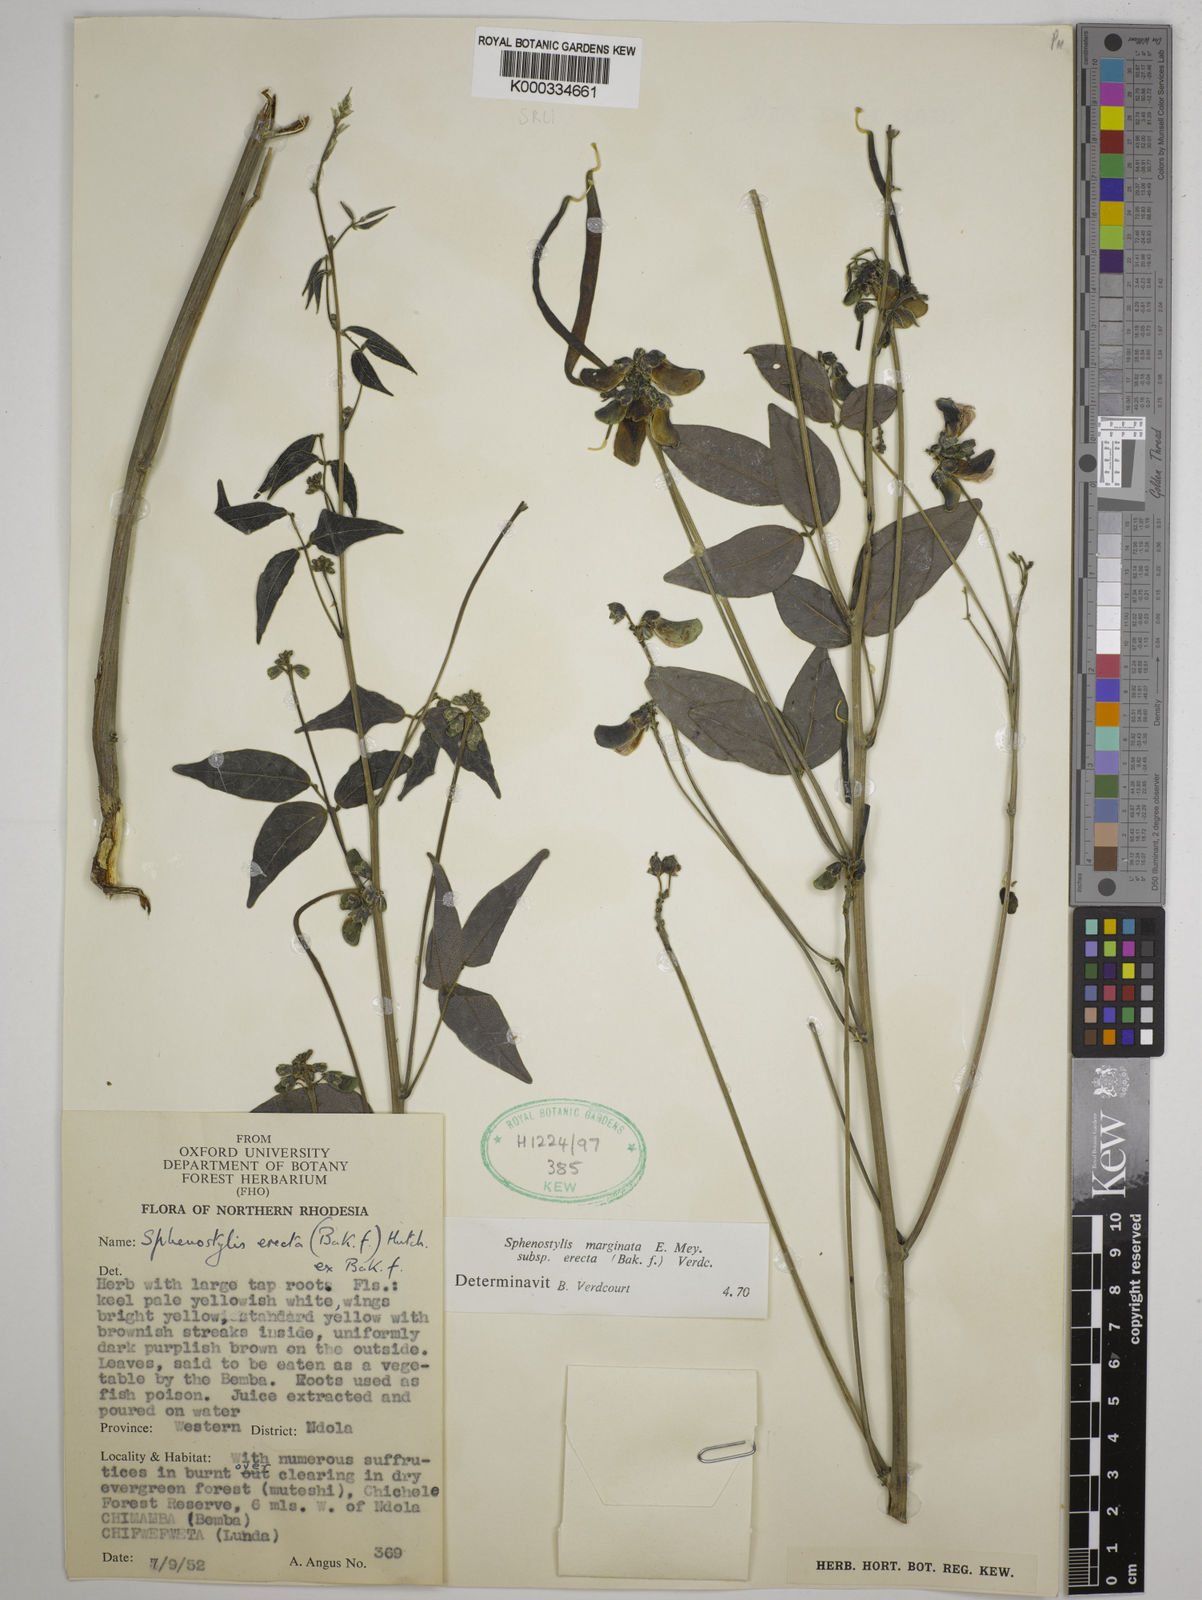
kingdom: Plantae
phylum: Tracheophyta
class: Magnoliopsida
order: Fabales
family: Fabaceae
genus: Sphenostylis
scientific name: Sphenostylis erecta
